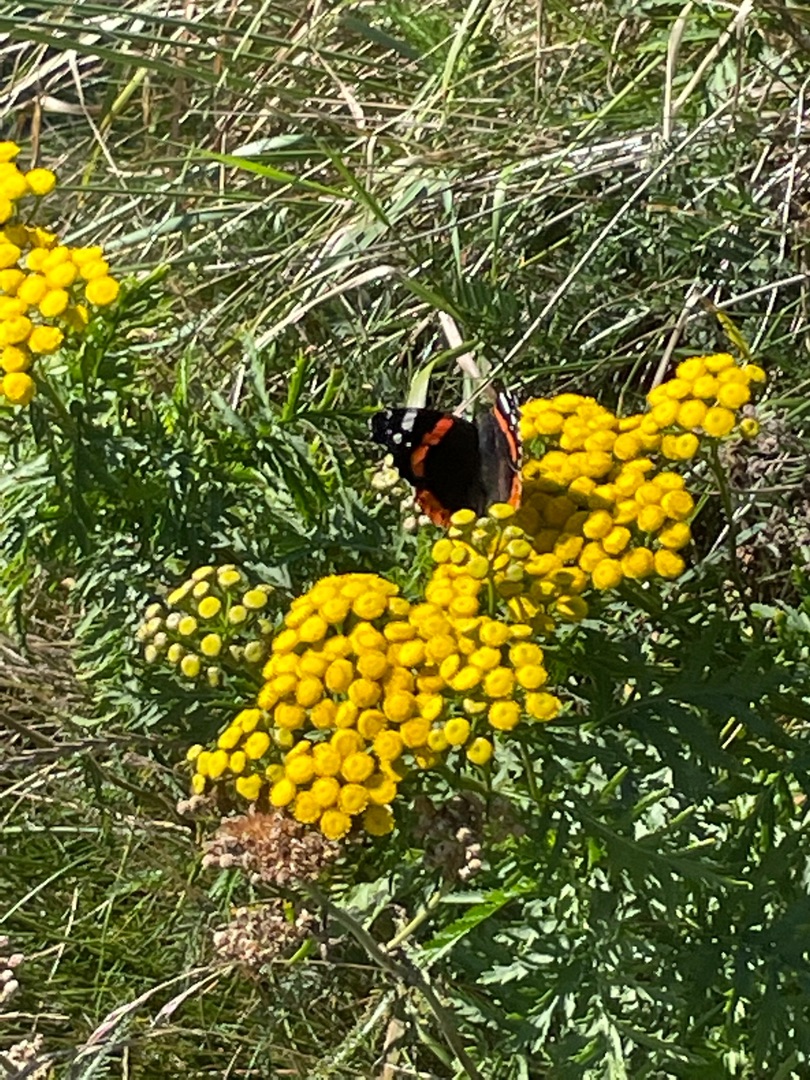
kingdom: Animalia
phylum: Arthropoda
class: Insecta
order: Lepidoptera
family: Nymphalidae
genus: Vanessa
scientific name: Vanessa atalanta
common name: Admiral
